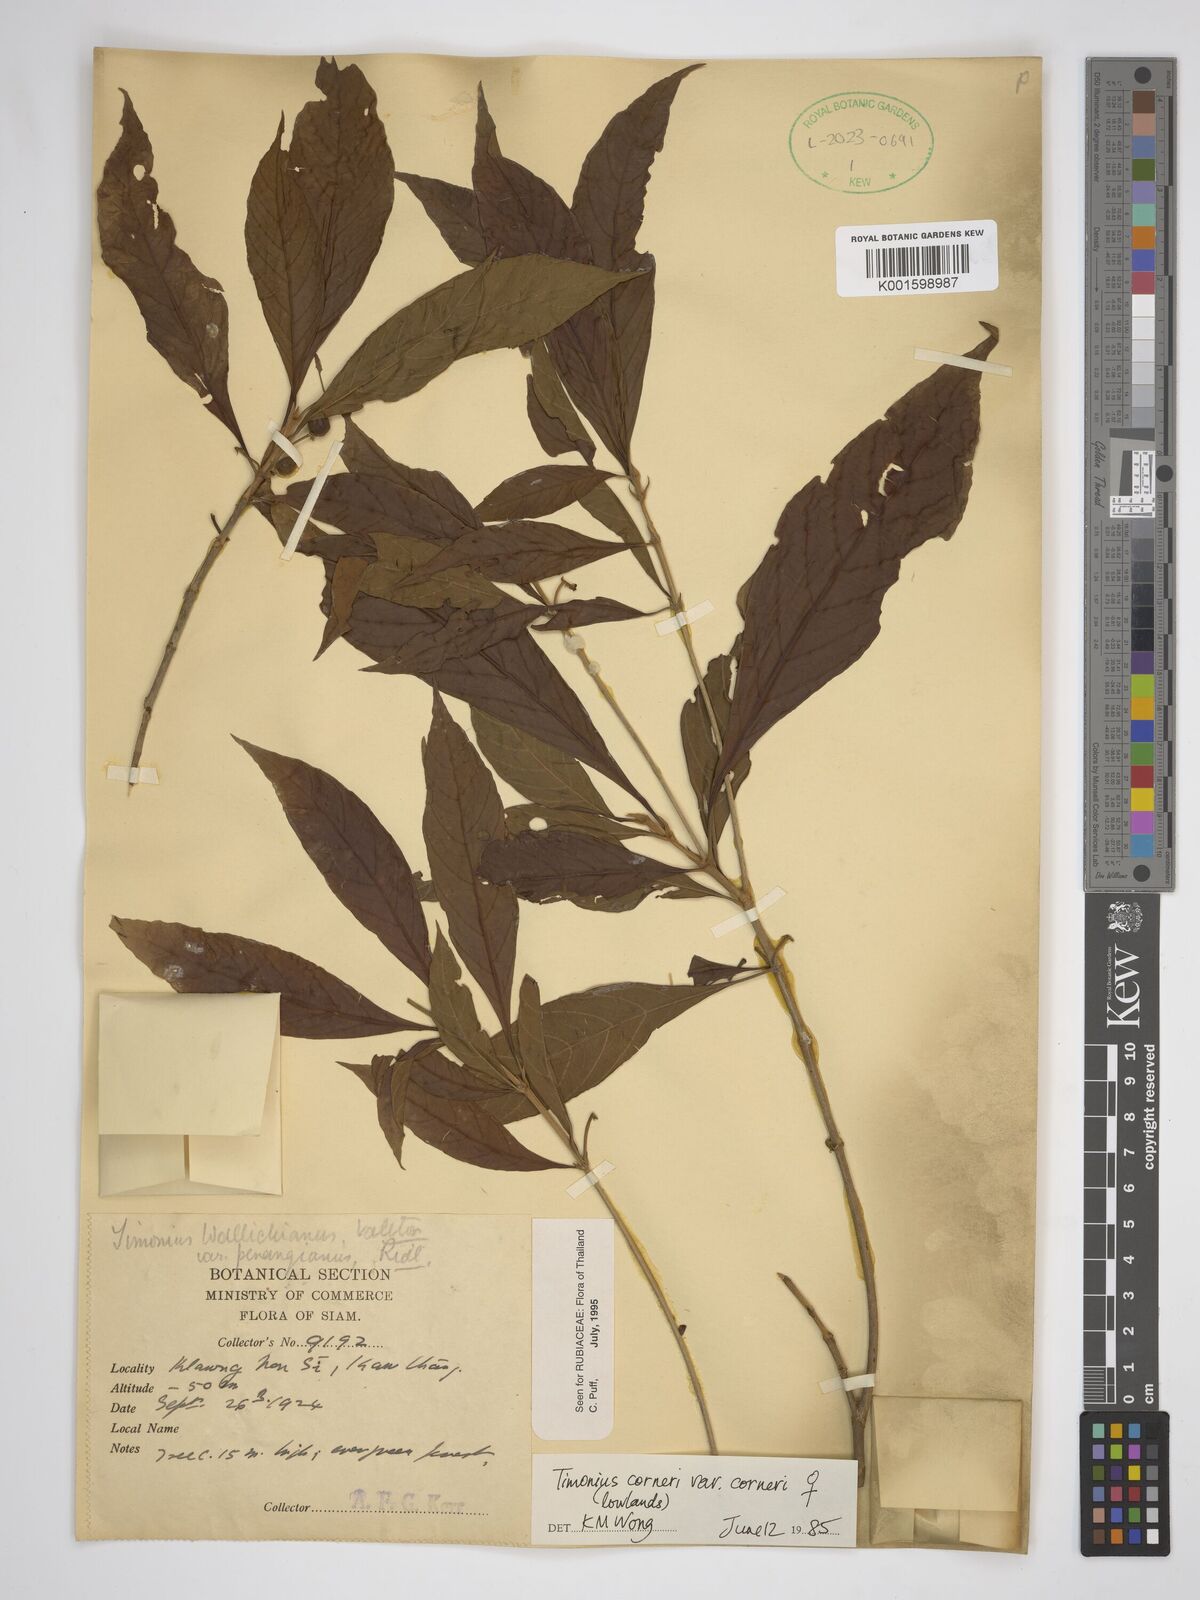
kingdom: Plantae
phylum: Tracheophyta
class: Magnoliopsida
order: Gentianales
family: Rubiaceae
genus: Timonius
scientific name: Timonius corneri
